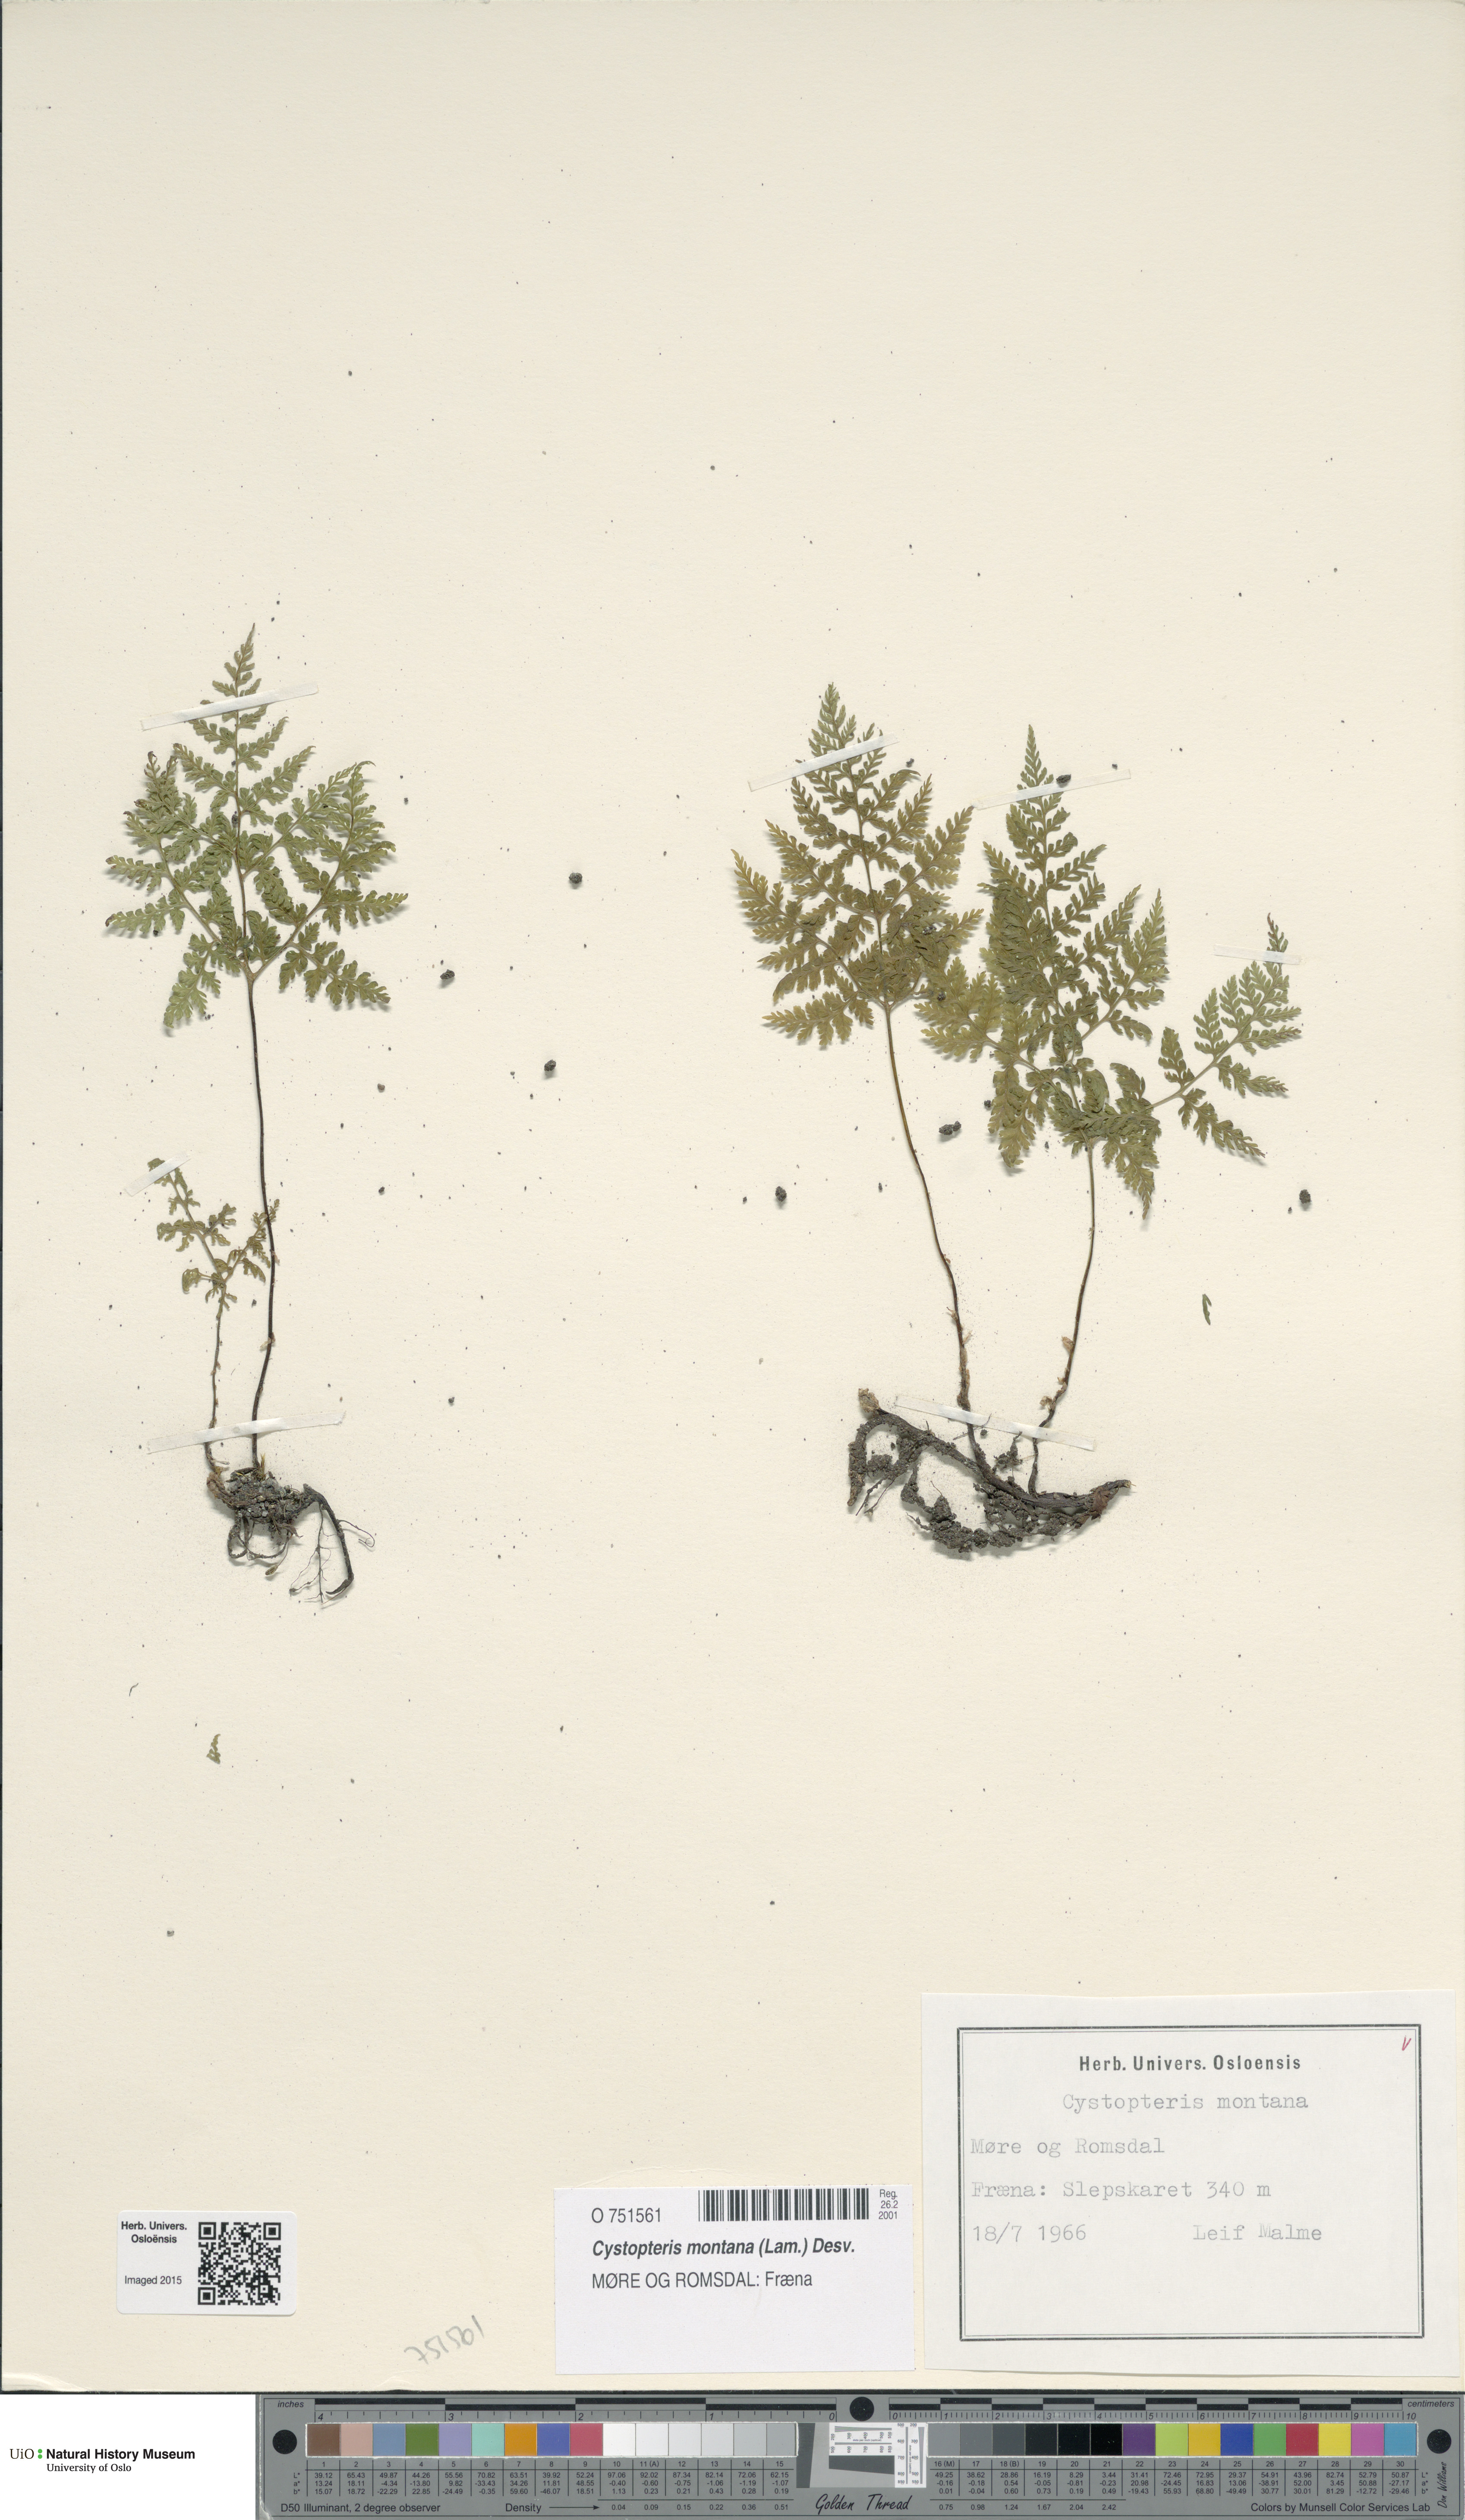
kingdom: Plantae
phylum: Tracheophyta
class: Polypodiopsida
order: Polypodiales
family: Cystopteridaceae
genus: Cystopteris
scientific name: Cystopteris montana
